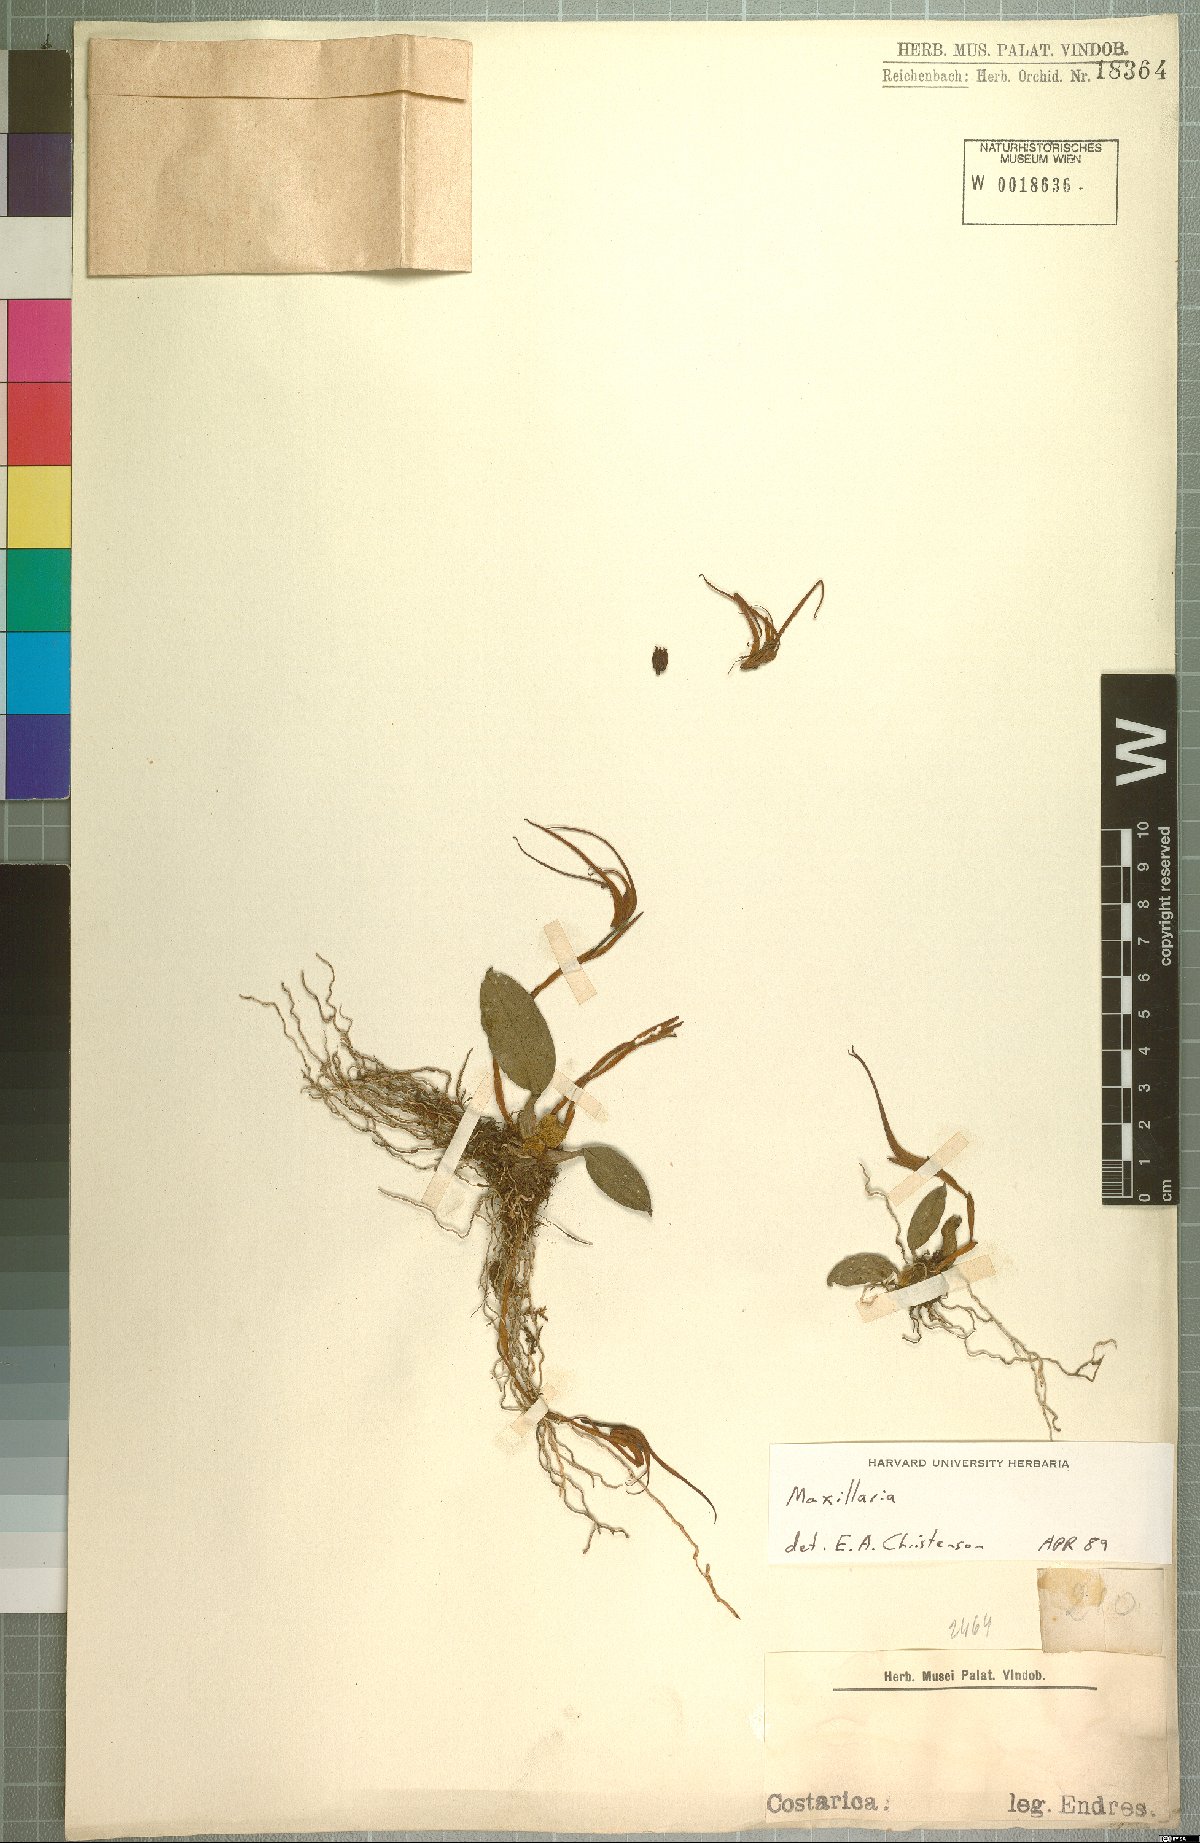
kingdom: Plantae
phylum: Tracheophyta
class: Liliopsida
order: Asparagales
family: Orchidaceae
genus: Maxillaria
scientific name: Maxillaria
